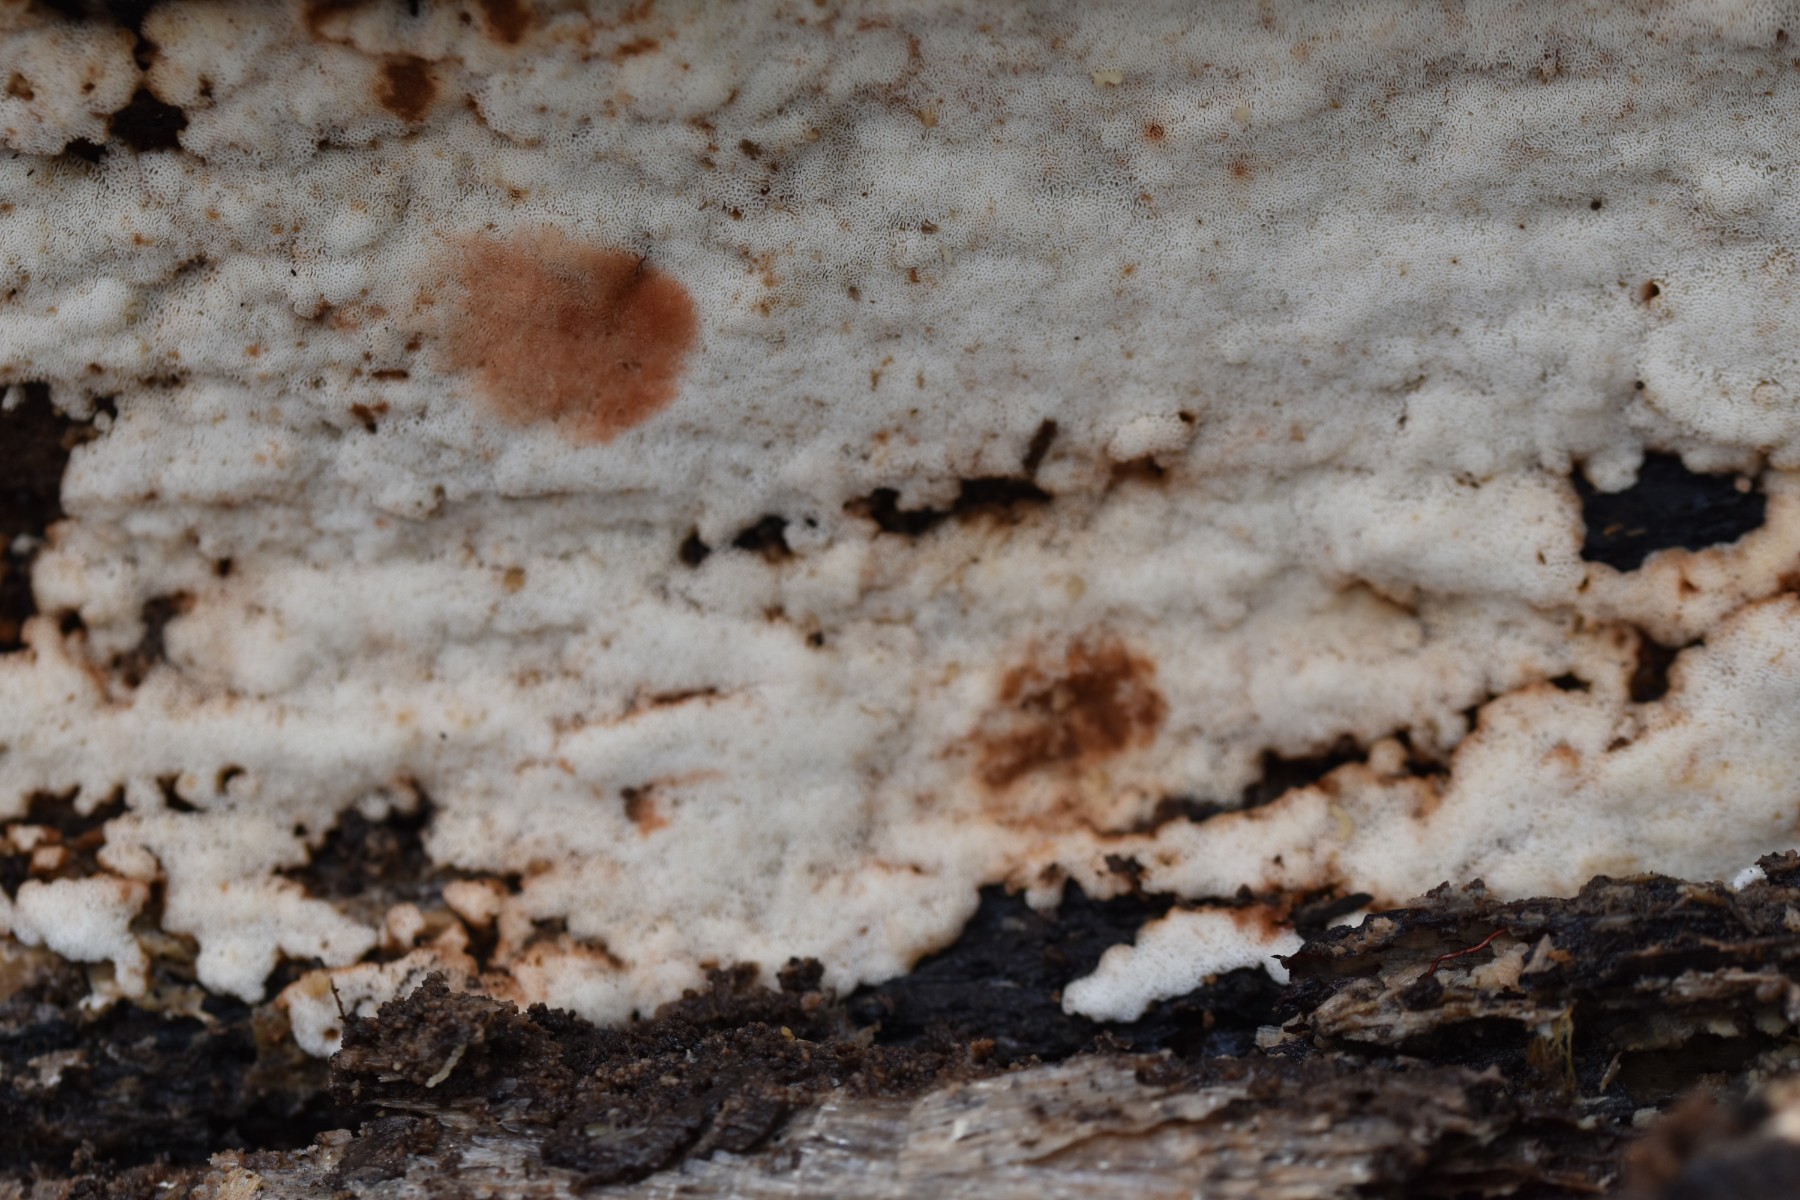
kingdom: Fungi
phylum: Basidiomycota
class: Agaricomycetes
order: Polyporales
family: Meripilaceae
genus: Rigidoporus
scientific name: Rigidoporus sanguinolentus
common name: blod-skorpeporesvamp
